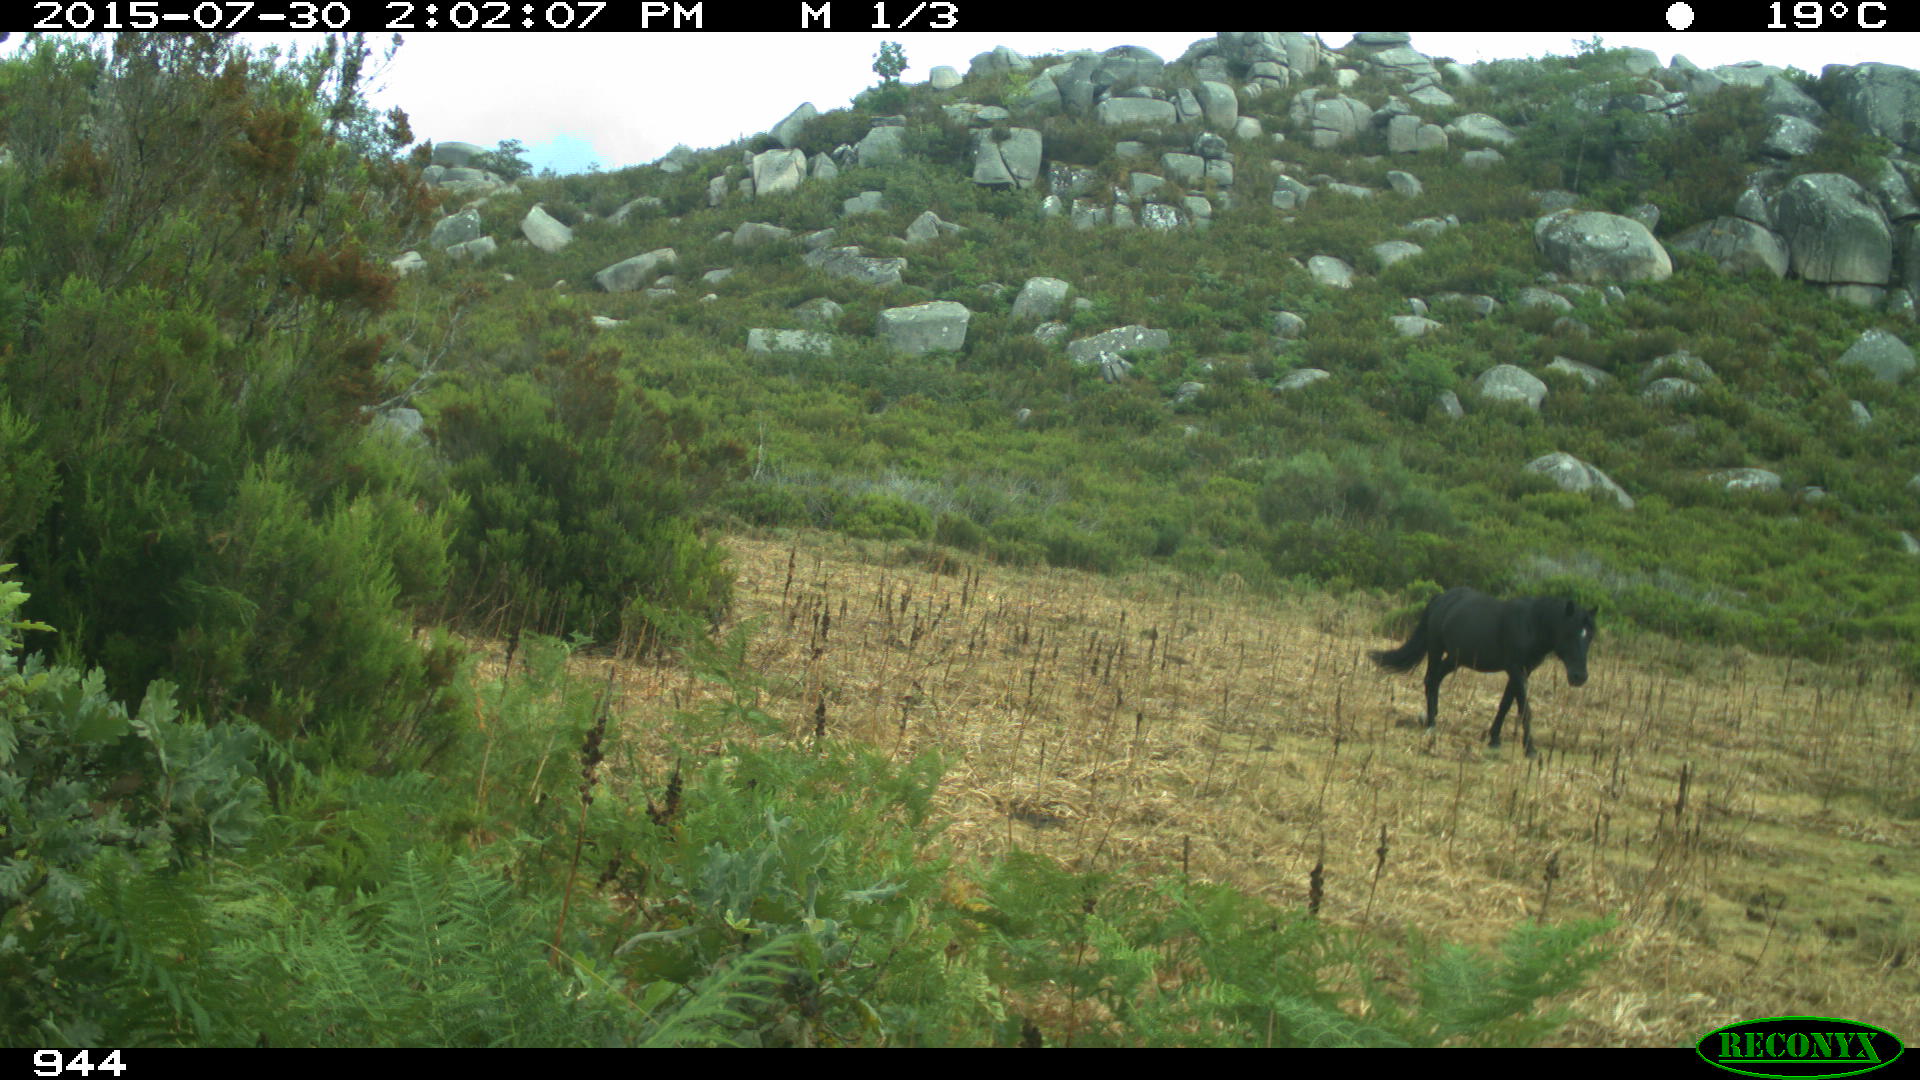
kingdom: Animalia
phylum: Chordata
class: Mammalia
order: Perissodactyla
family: Equidae
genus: Equus
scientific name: Equus caballus
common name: Horse
